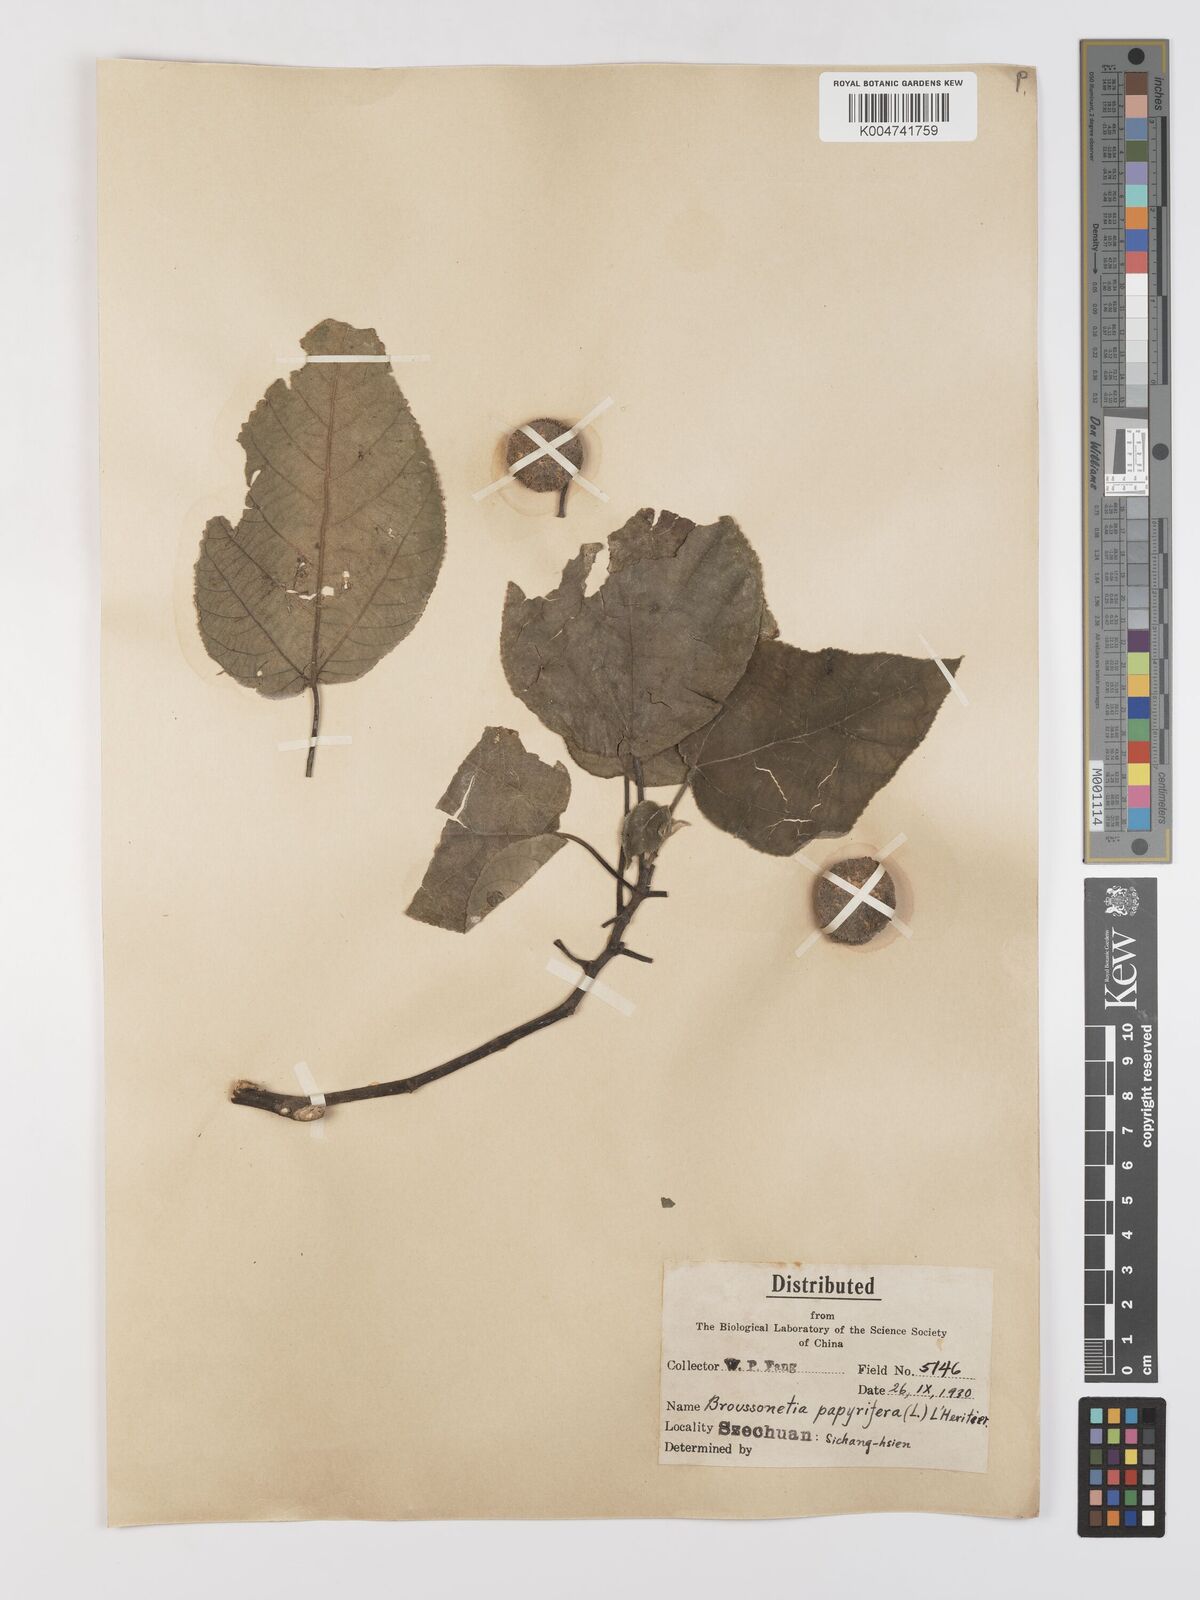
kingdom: Plantae
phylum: Tracheophyta
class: Magnoliopsida
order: Rosales
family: Moraceae
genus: Broussonetia
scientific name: Broussonetia
